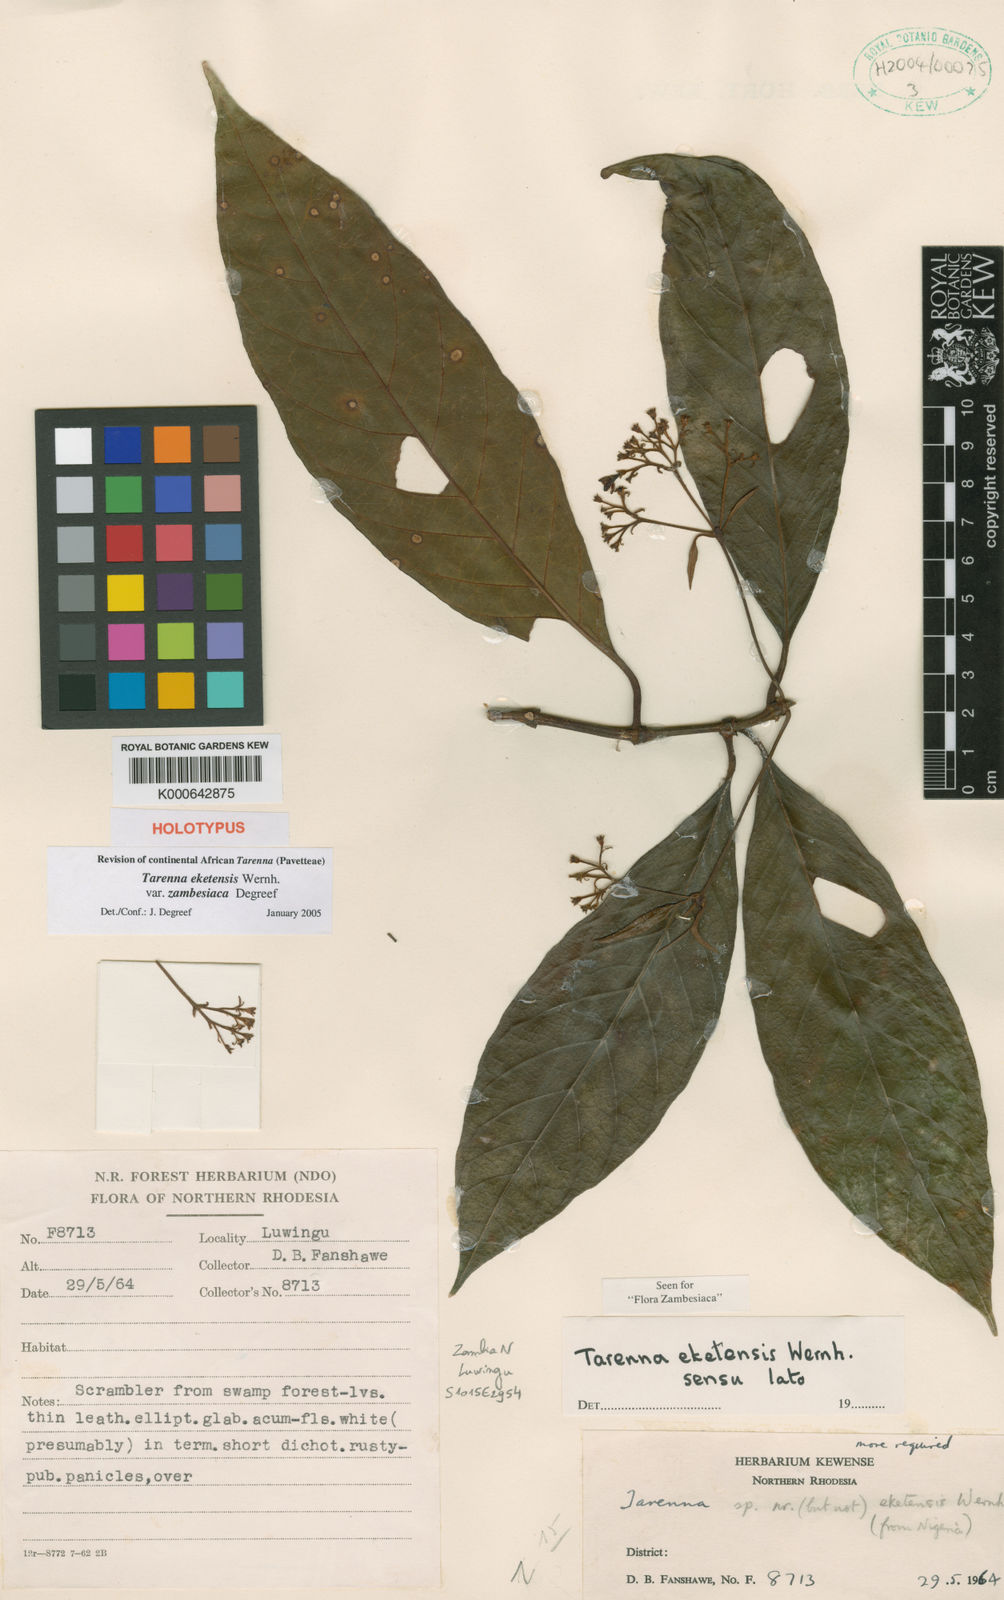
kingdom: Plantae
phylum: Tracheophyta
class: Magnoliopsida
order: Gentianales
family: Rubiaceae
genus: Tarenna
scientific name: Tarenna eketensis
